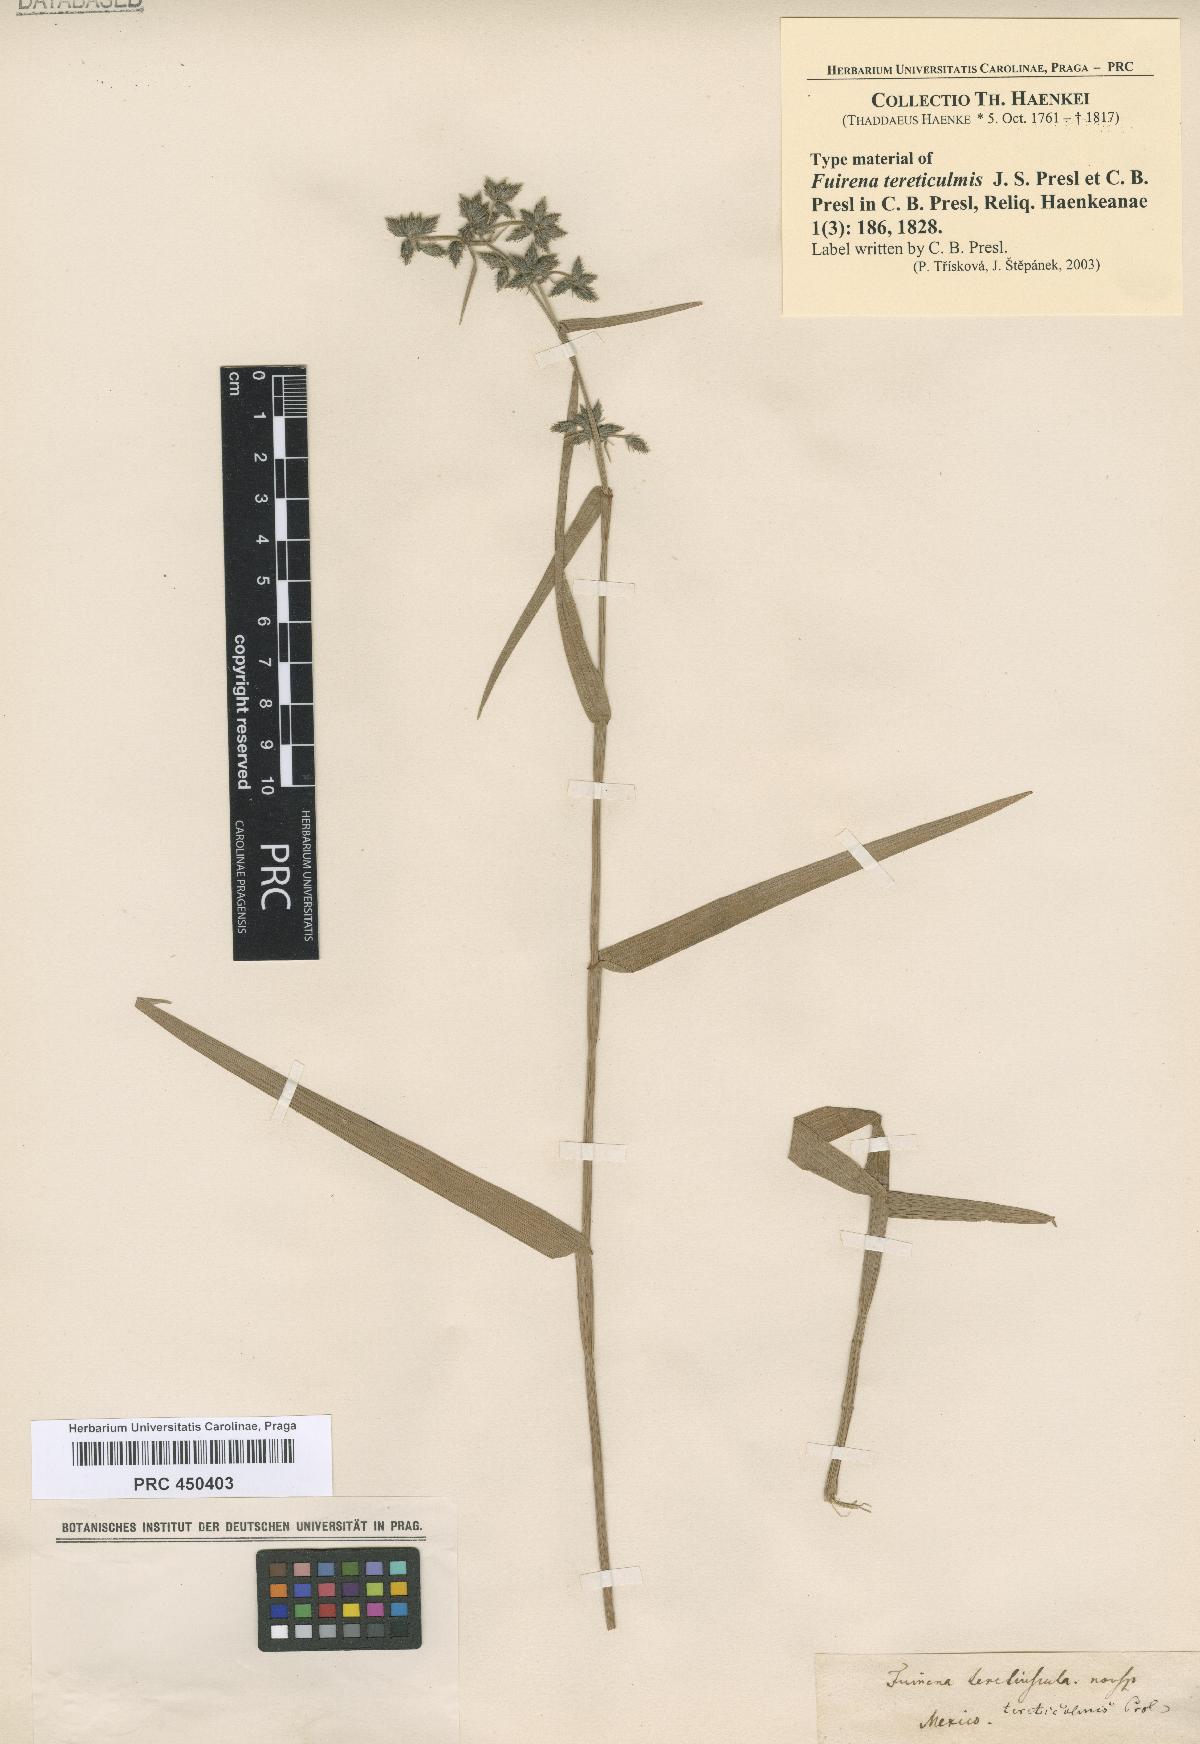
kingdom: Plantae
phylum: Tracheophyta
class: Liliopsida
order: Poales
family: Cyperaceae
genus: Fuirena
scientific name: Fuirena umbellata
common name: Yefen
